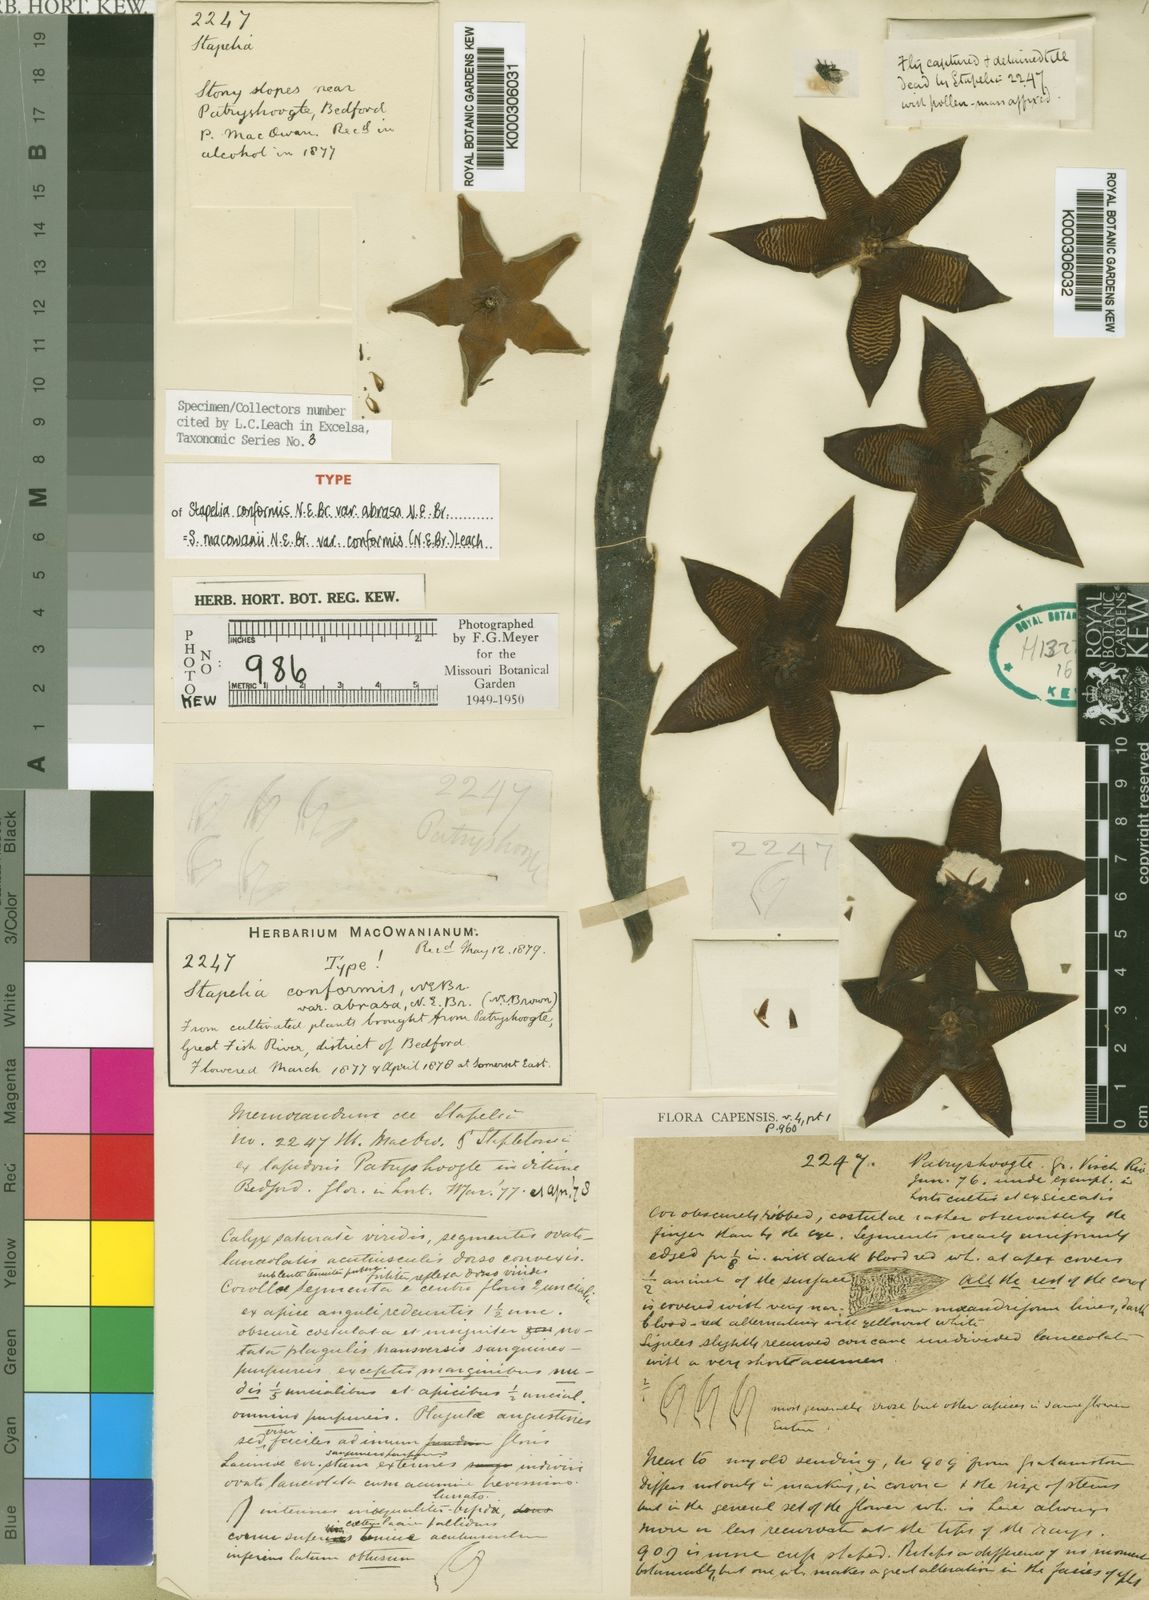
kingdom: Plantae
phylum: Tracheophyta
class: Magnoliopsida
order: Gentianales
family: Apocynaceae
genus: Ceropegia
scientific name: Ceropegia grandiflora
